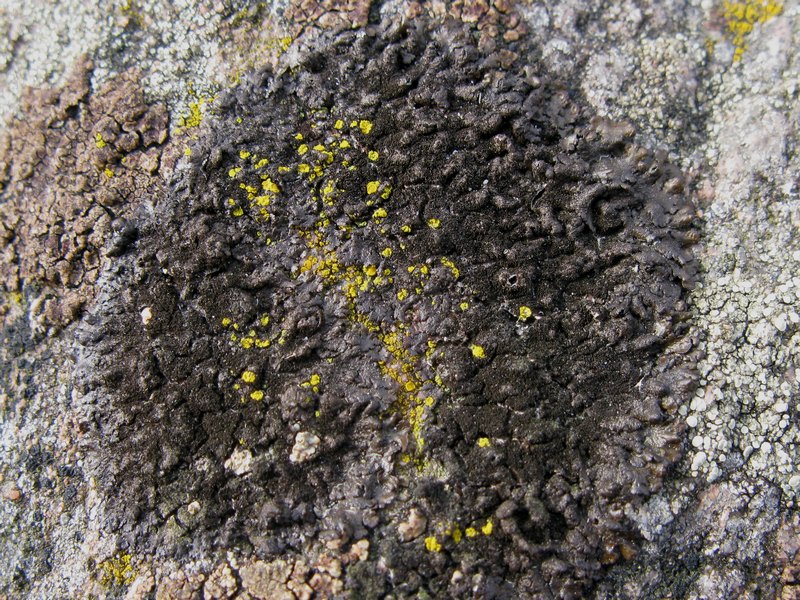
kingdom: Fungi
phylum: Ascomycota
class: Lecanoromycetes
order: Lecanorales
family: Parmeliaceae
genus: Melanelixia
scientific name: Melanelixia fuliginosa
